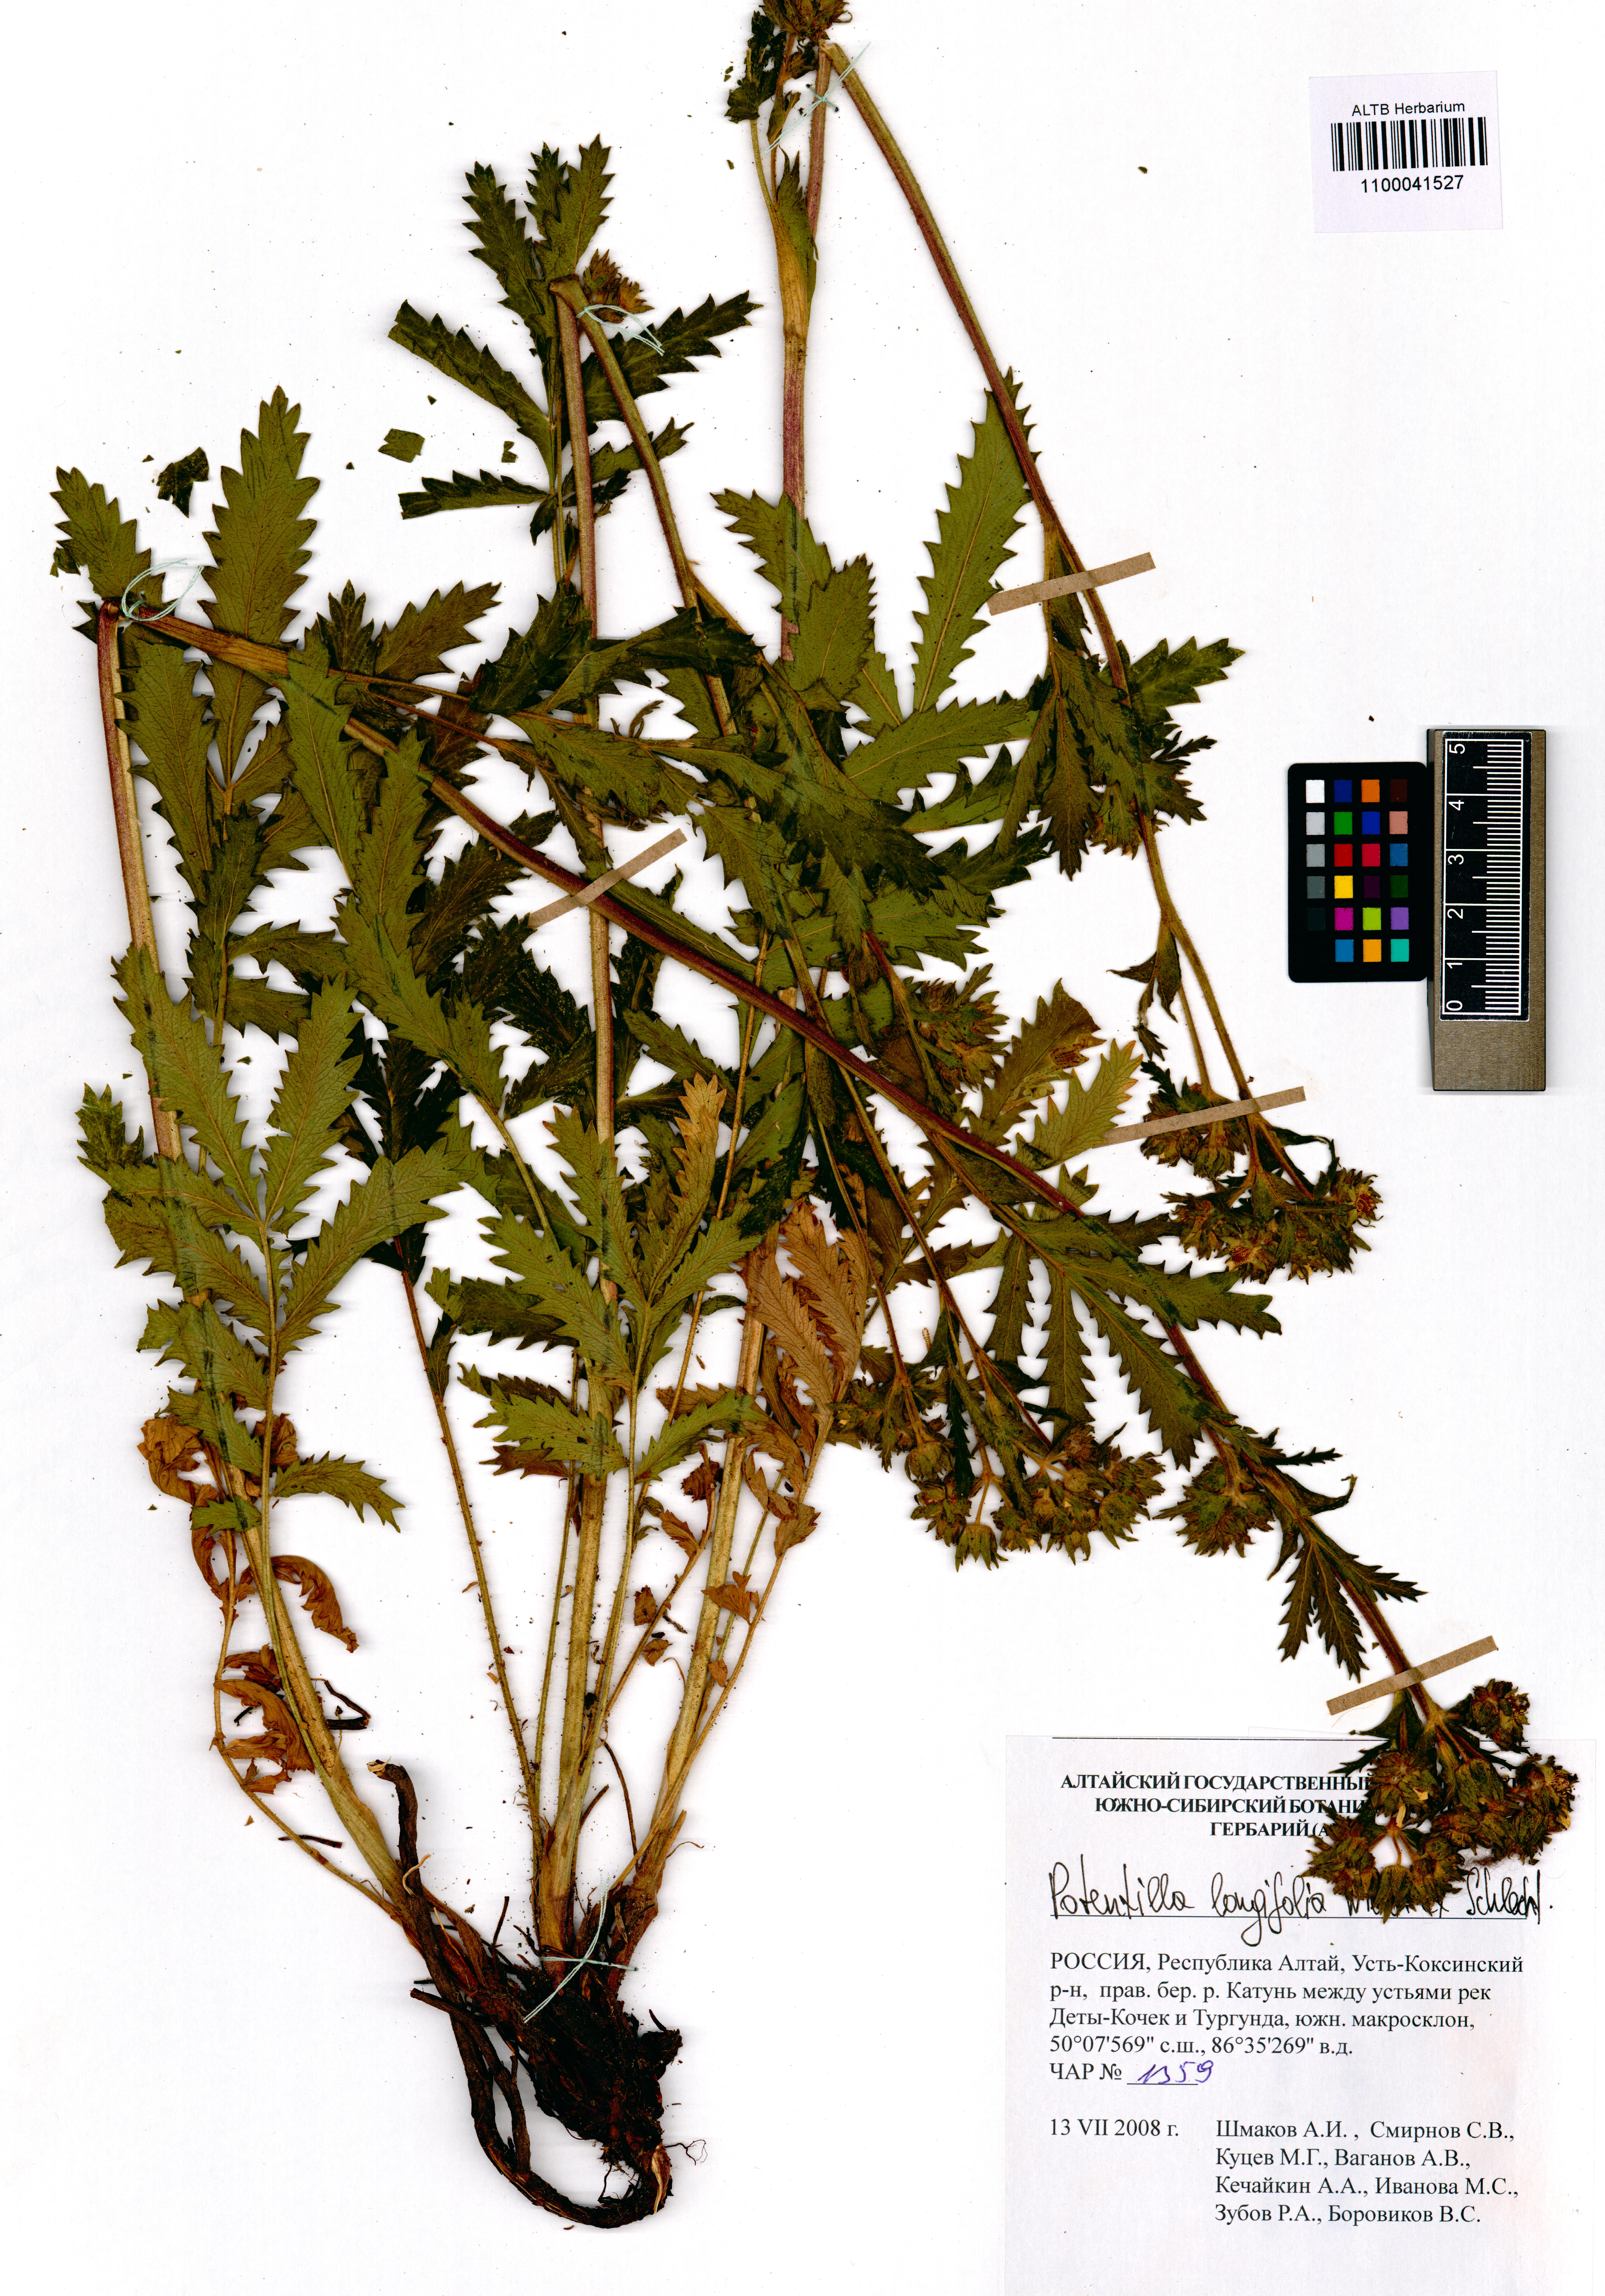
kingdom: Plantae
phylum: Tracheophyta
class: Magnoliopsida
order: Rosales
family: Rosaceae
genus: Potentilla
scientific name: Potentilla longifolia
